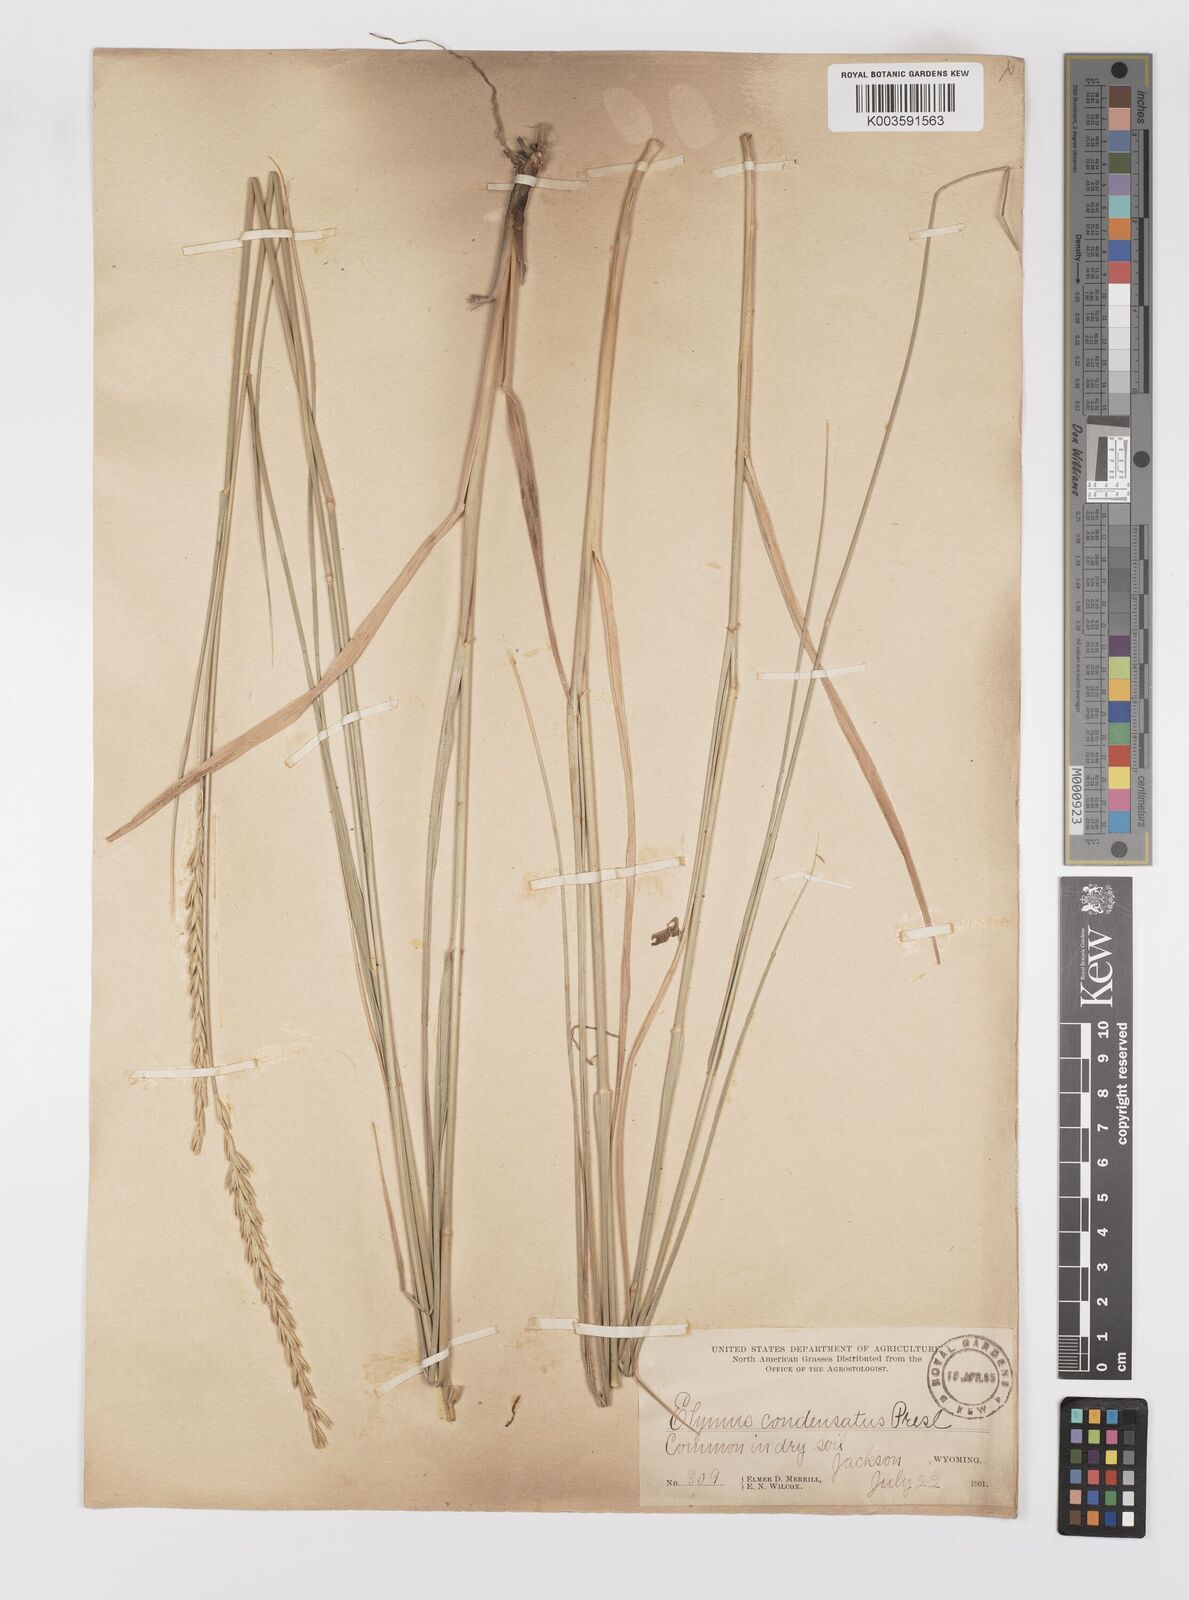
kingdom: Plantae
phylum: Tracheophyta
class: Liliopsida
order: Poales
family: Poaceae
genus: Leymus
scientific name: Leymus condensatus
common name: Giant wild rye
